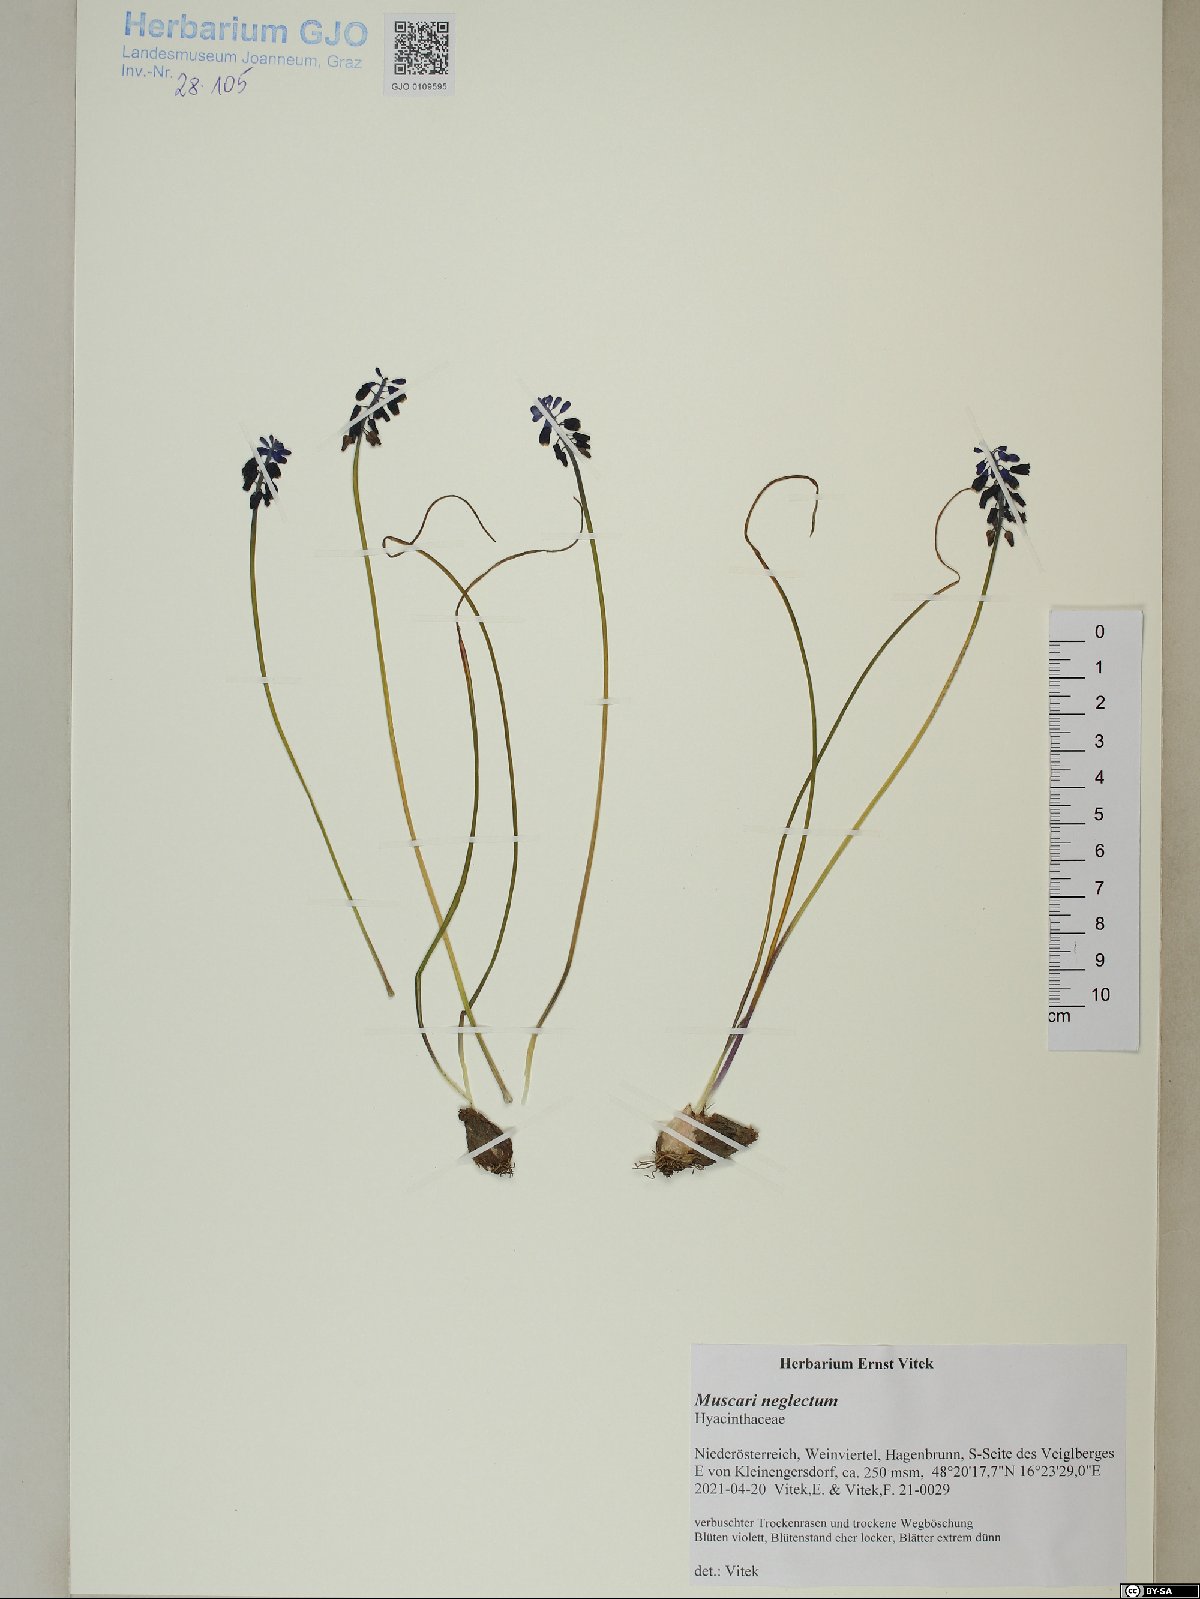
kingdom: Plantae
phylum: Tracheophyta
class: Liliopsida
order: Asparagales
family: Asparagaceae
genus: Muscari
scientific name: Muscari neglectum
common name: Grape-hyacinth
